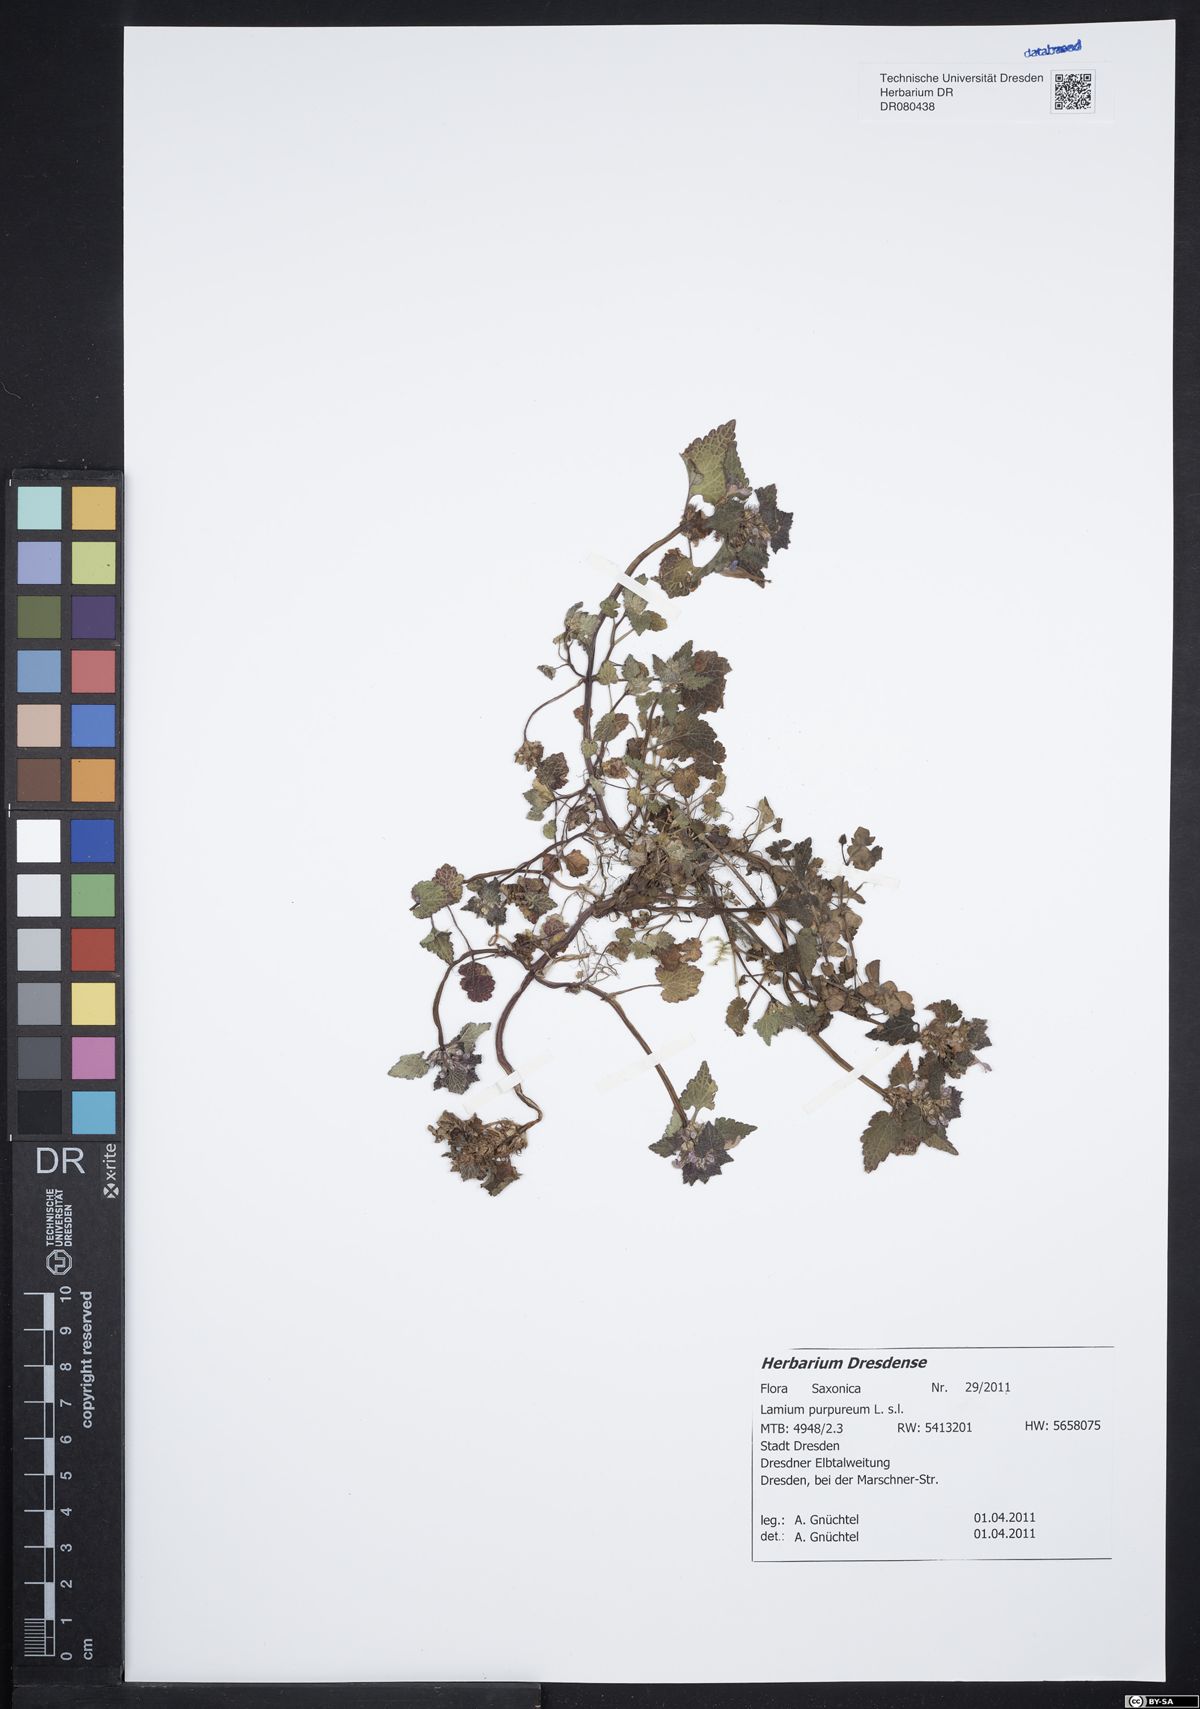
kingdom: Plantae
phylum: Tracheophyta
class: Magnoliopsida
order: Lamiales
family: Lamiaceae
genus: Lamium
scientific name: Lamium purpureum
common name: Red dead-nettle
